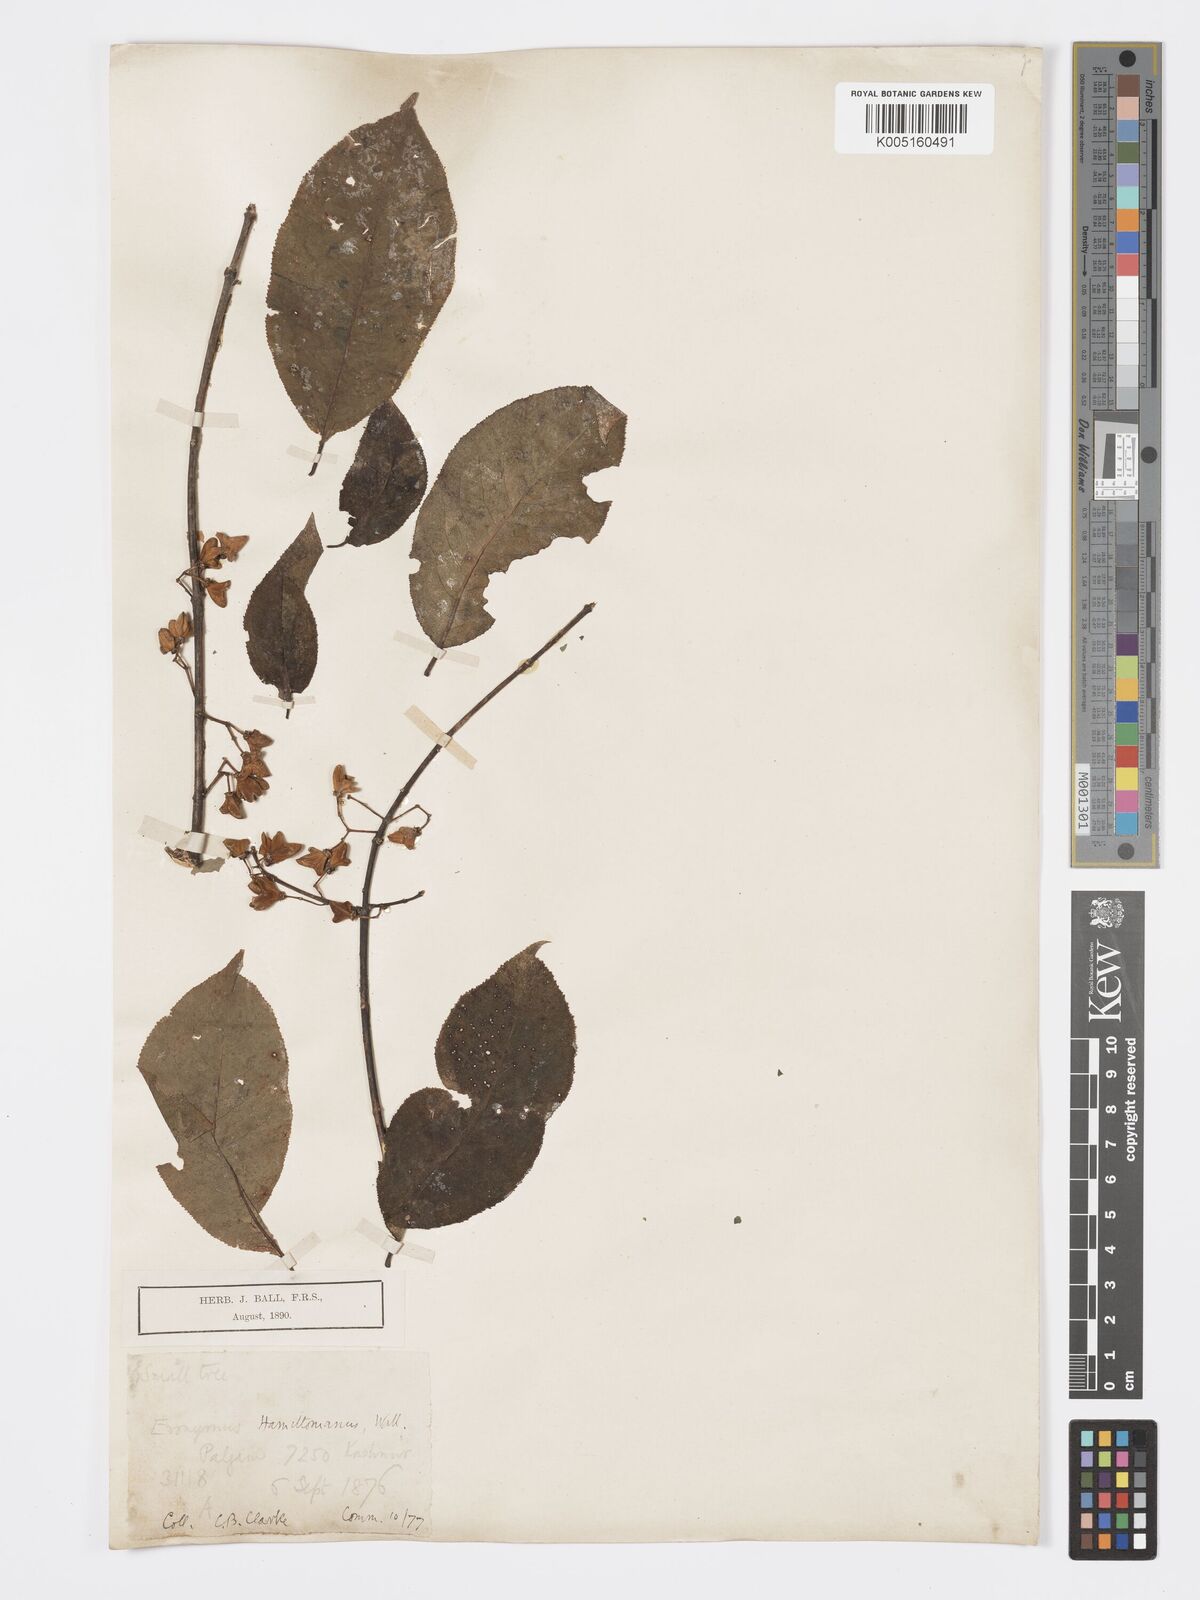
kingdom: Plantae
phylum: Tracheophyta
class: Magnoliopsida
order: Celastrales
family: Celastraceae
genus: Euonymus
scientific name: Euonymus
